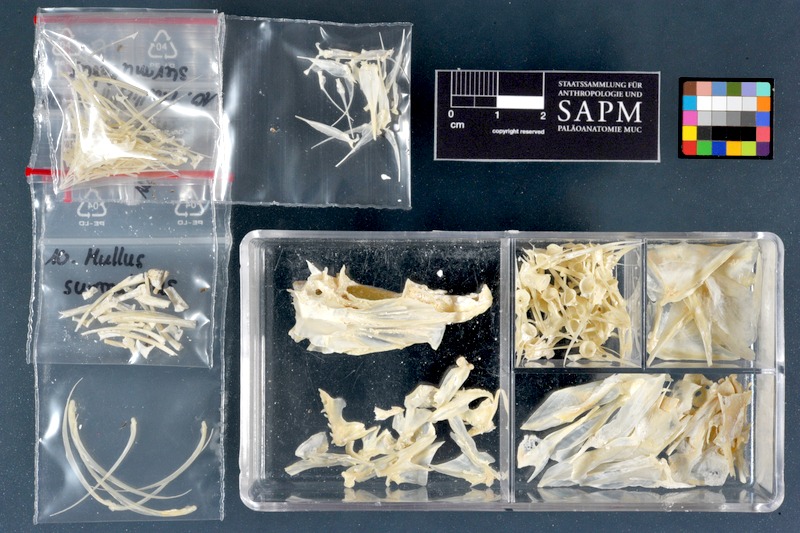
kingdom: Animalia
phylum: Chordata
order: Perciformes
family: Mullidae
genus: Mullus
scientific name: Mullus surmuletus
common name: Red mullet
